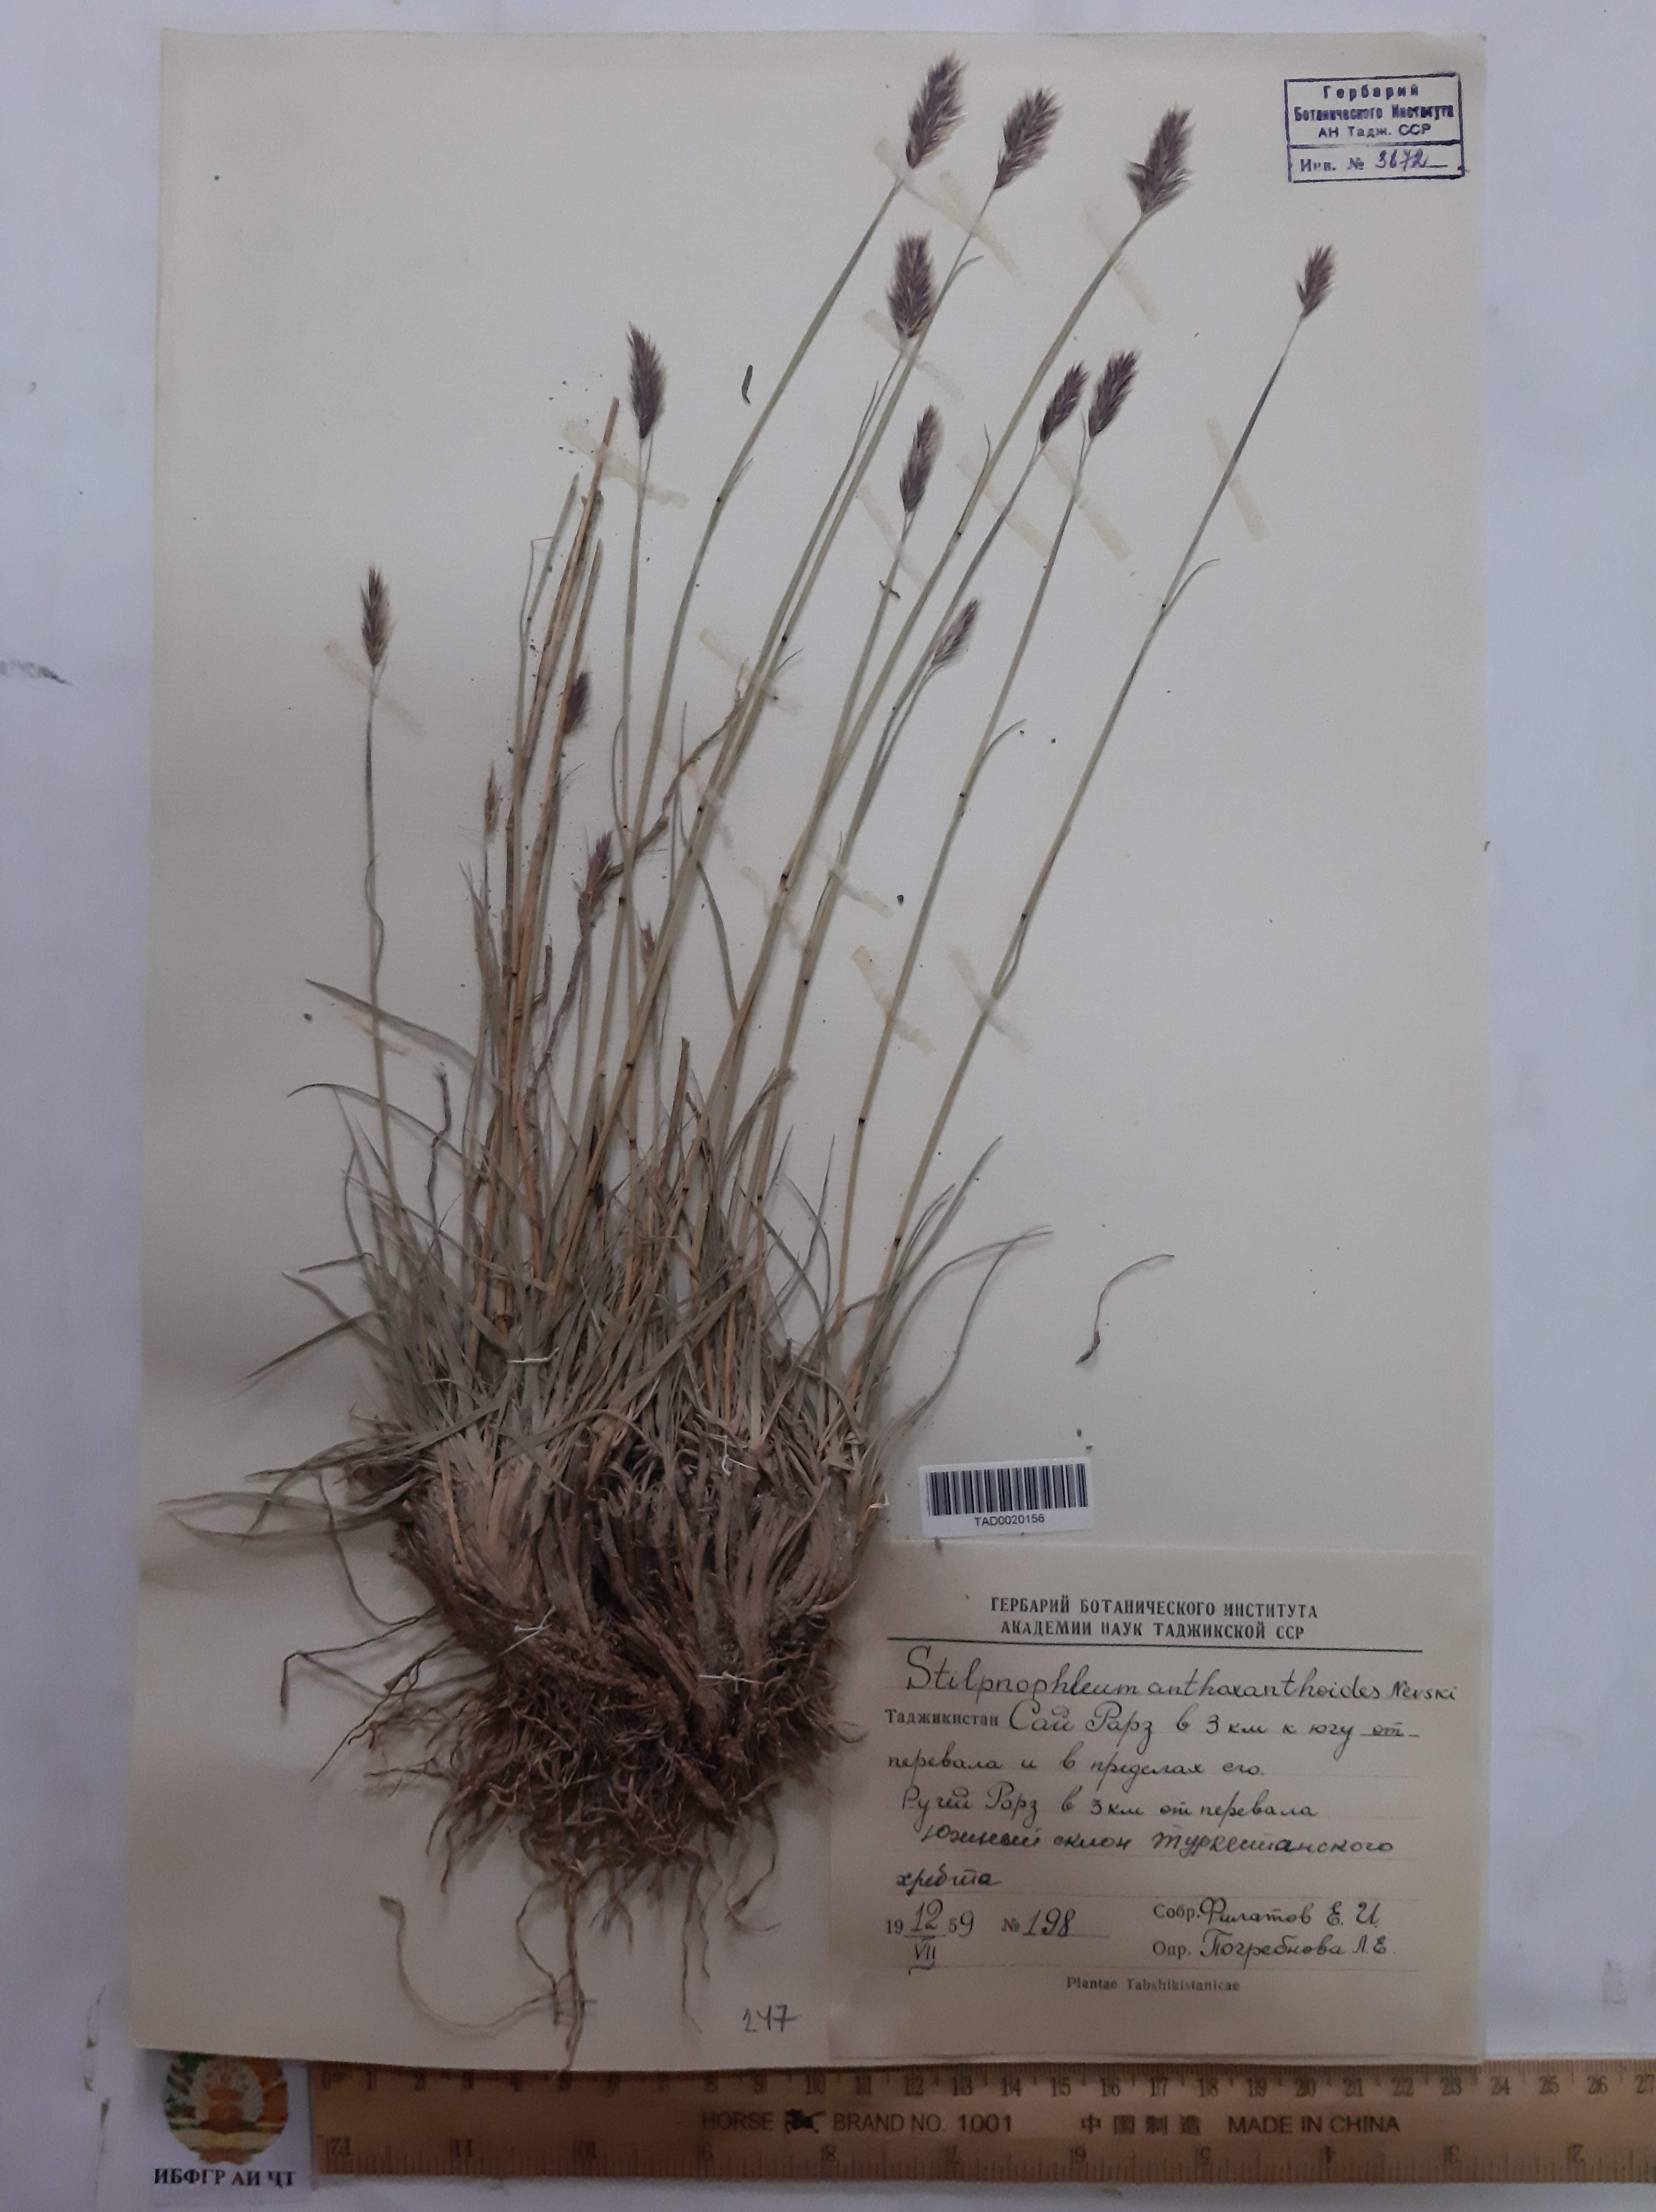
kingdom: Plantae
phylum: Tracheophyta
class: Liliopsida
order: Poales
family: Poaceae
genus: Calamagrostis
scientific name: Calamagrostis anthoxanthoides
